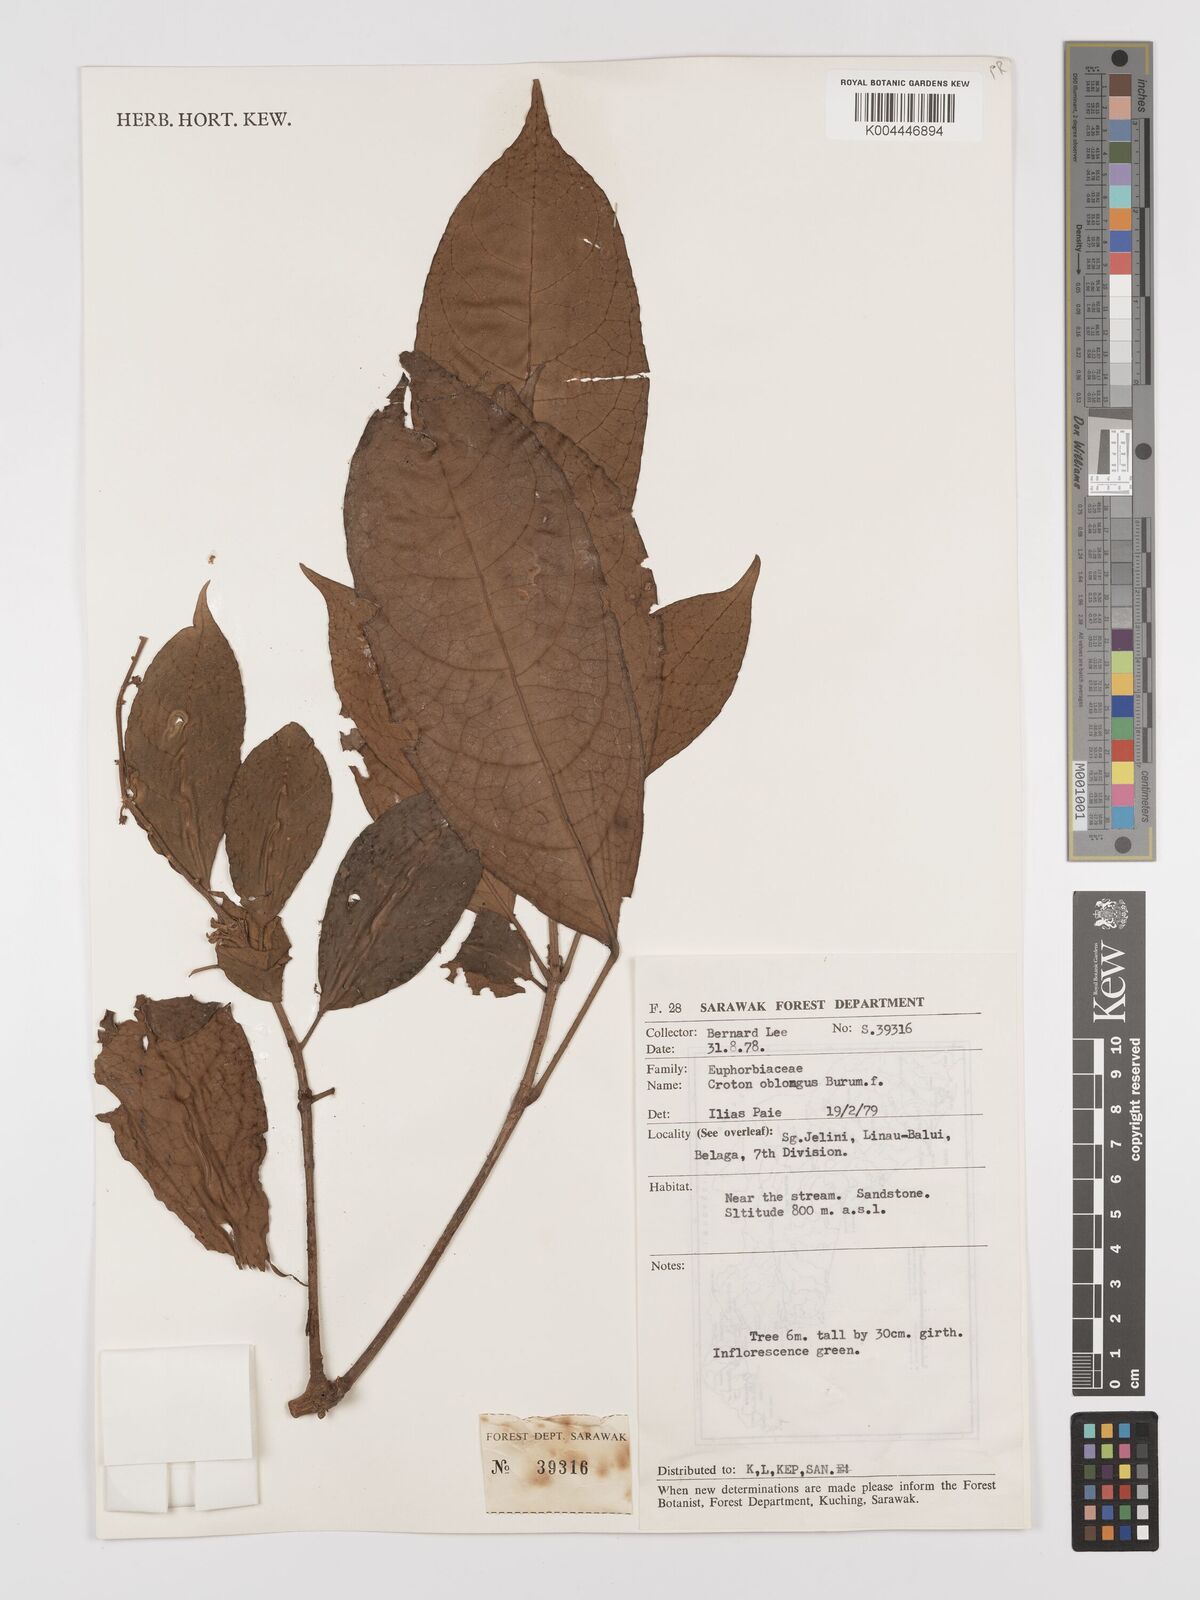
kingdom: Plantae
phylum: Tracheophyta
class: Magnoliopsida
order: Malpighiales
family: Euphorbiaceae
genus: Croton
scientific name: Croton oblongus
